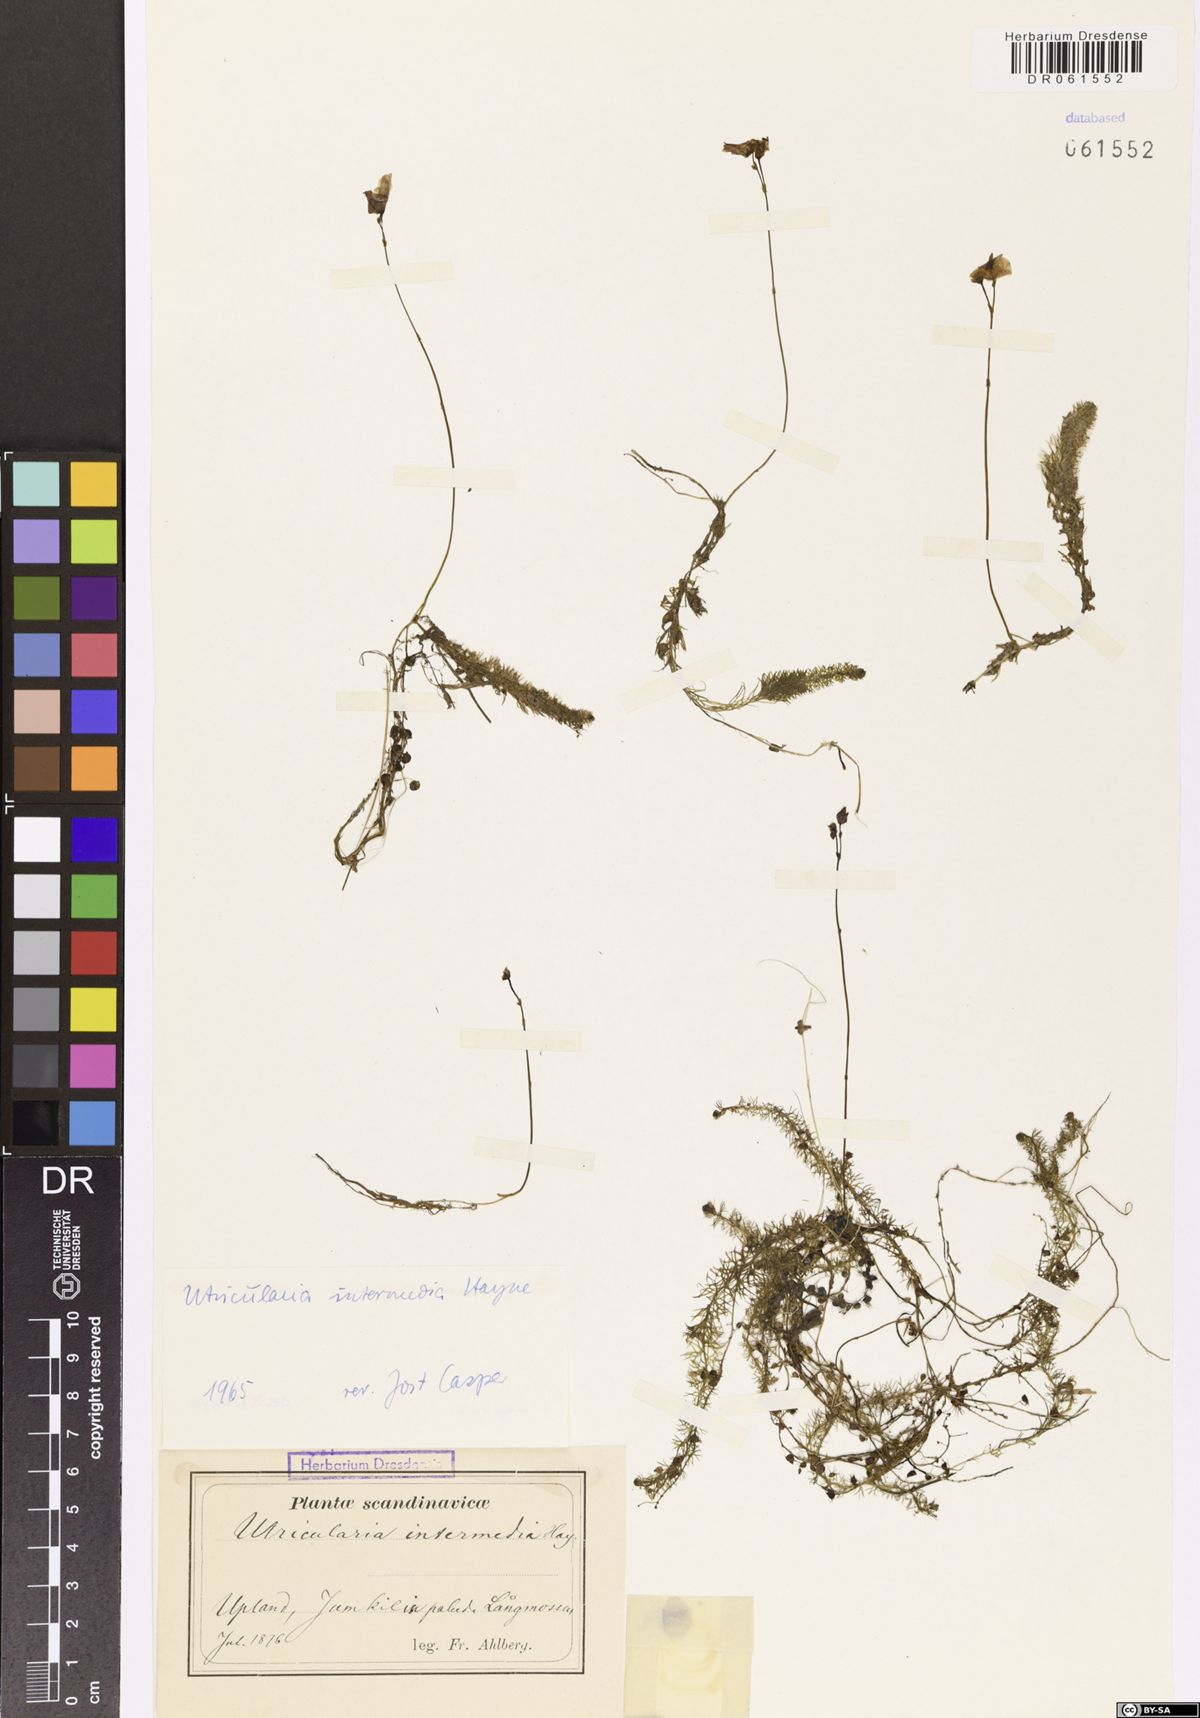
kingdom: Plantae
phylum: Tracheophyta
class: Magnoliopsida
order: Lamiales
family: Lentibulariaceae
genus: Utricularia
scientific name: Utricularia intermedia
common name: Intermediate bladderwort
